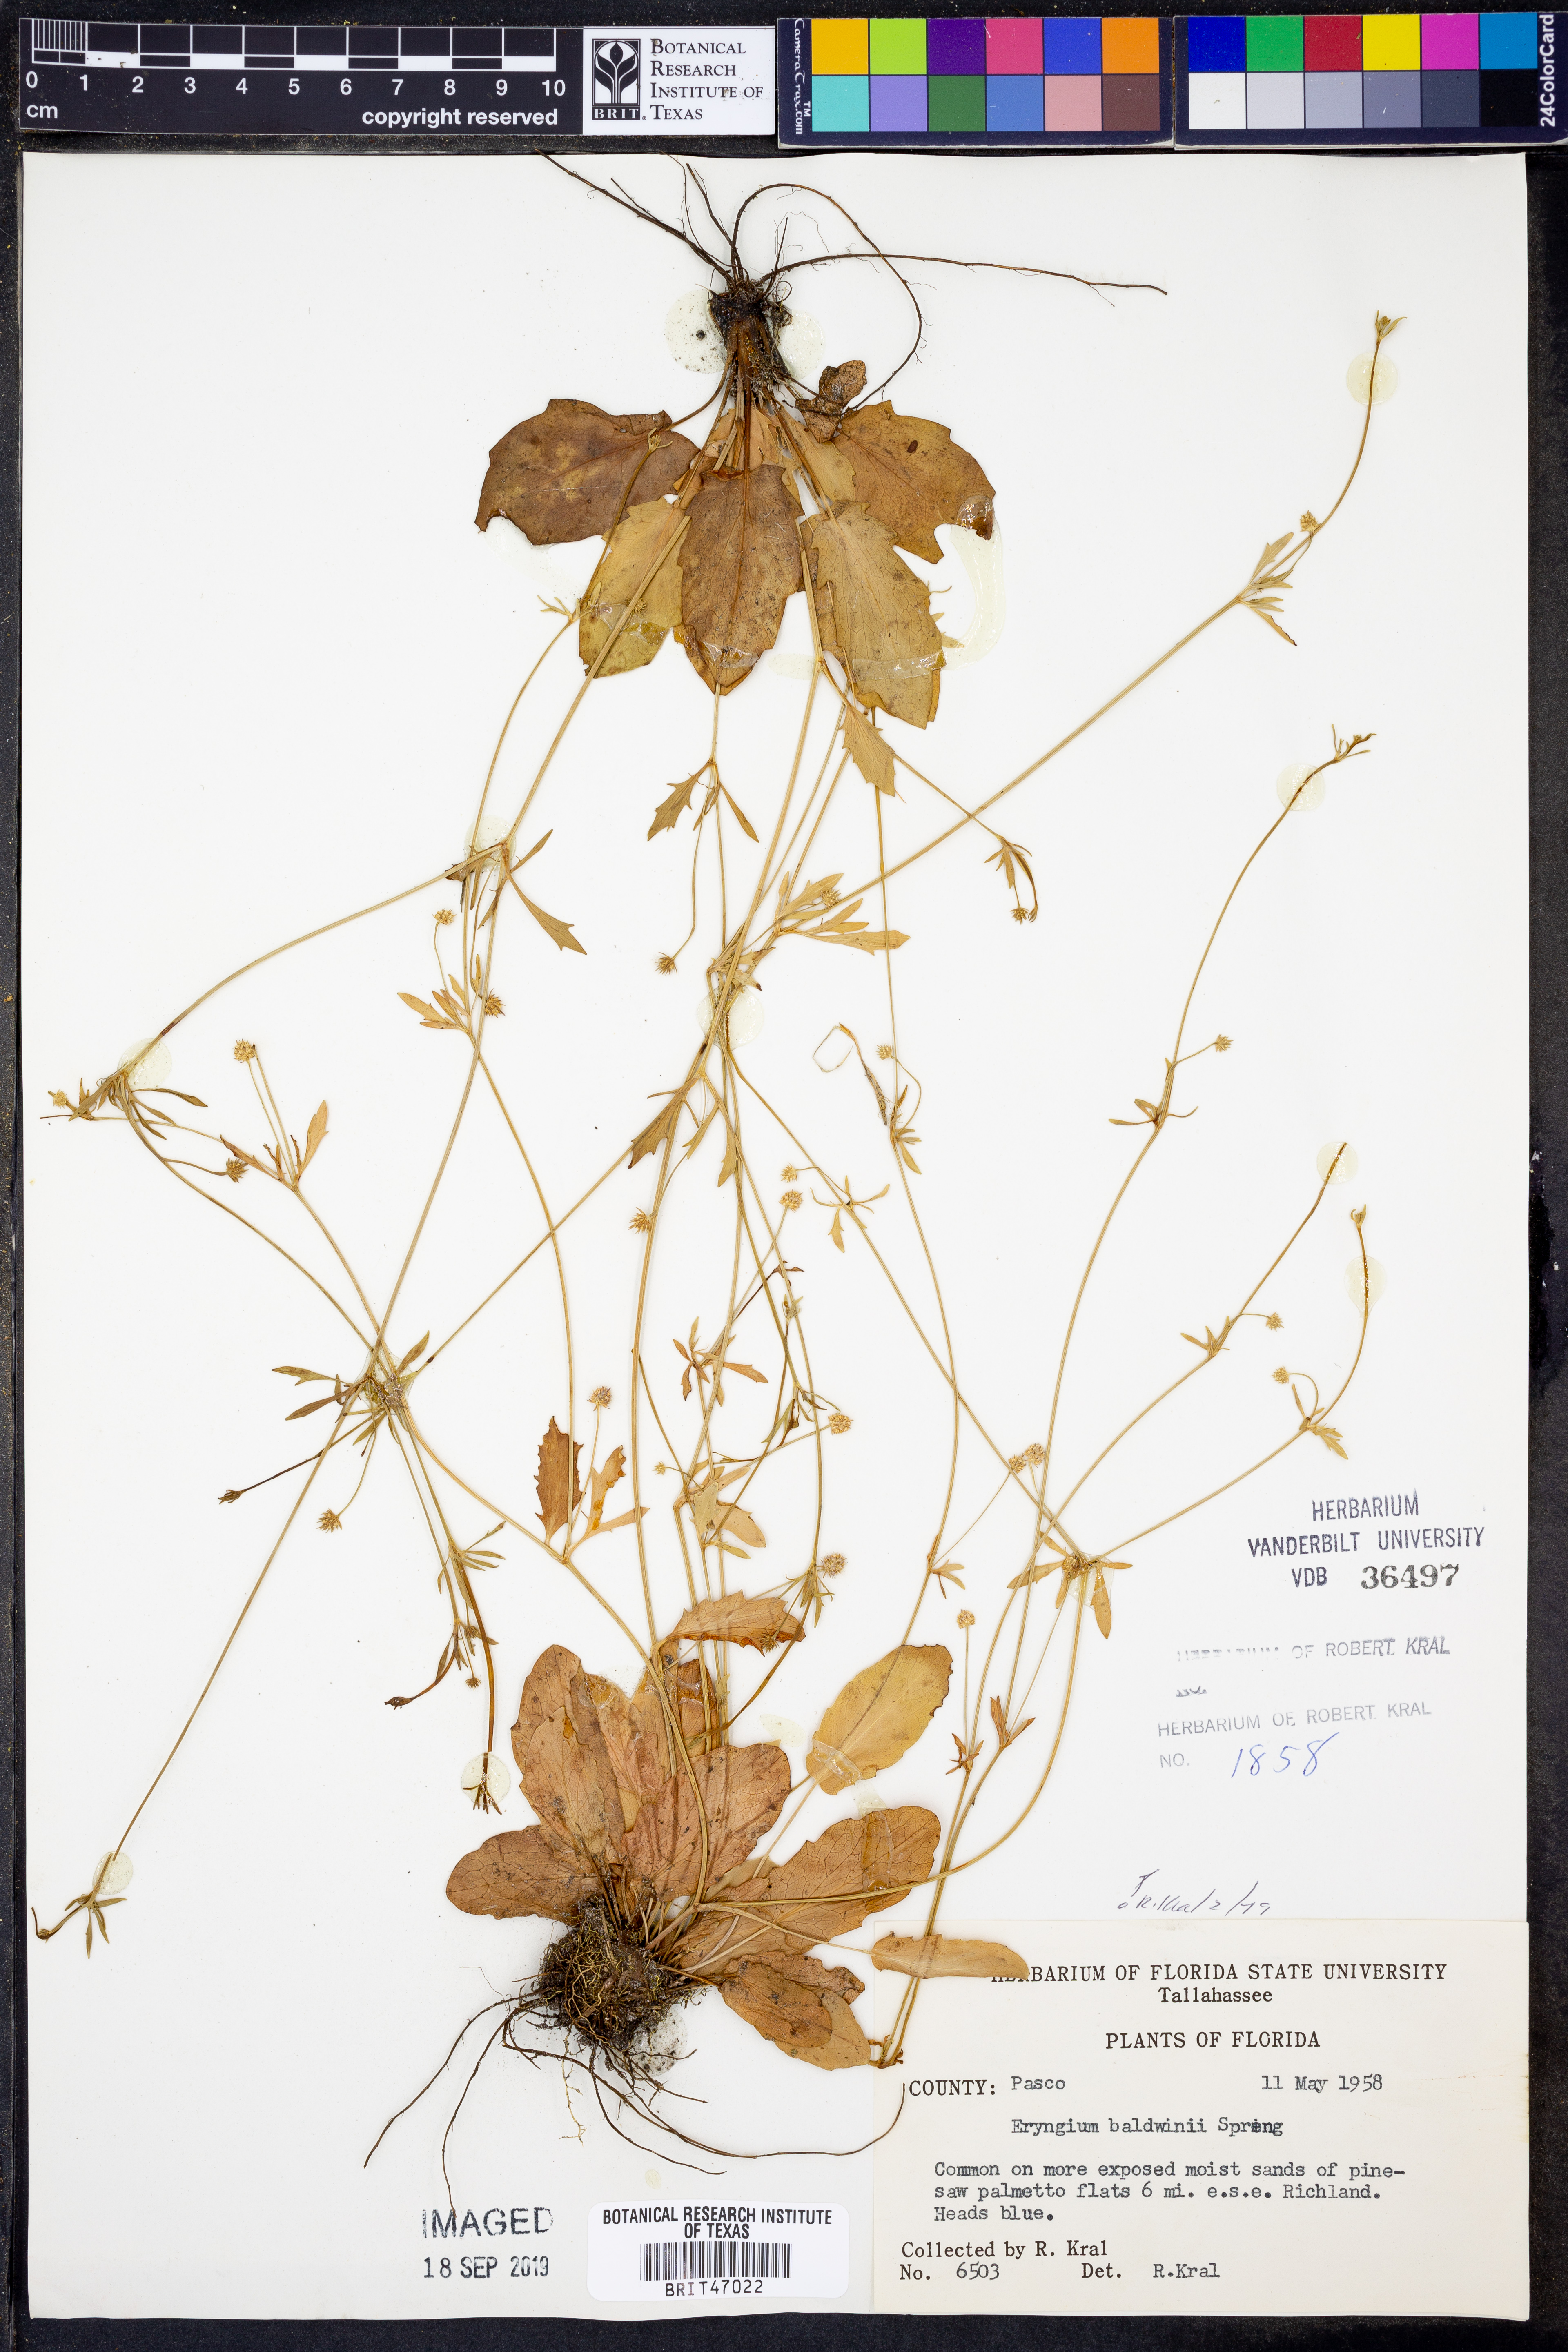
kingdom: Plantae
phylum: Tracheophyta
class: Magnoliopsida
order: Apiales
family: Apiaceae
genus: Eryngium
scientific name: Eryngium baldwinii
